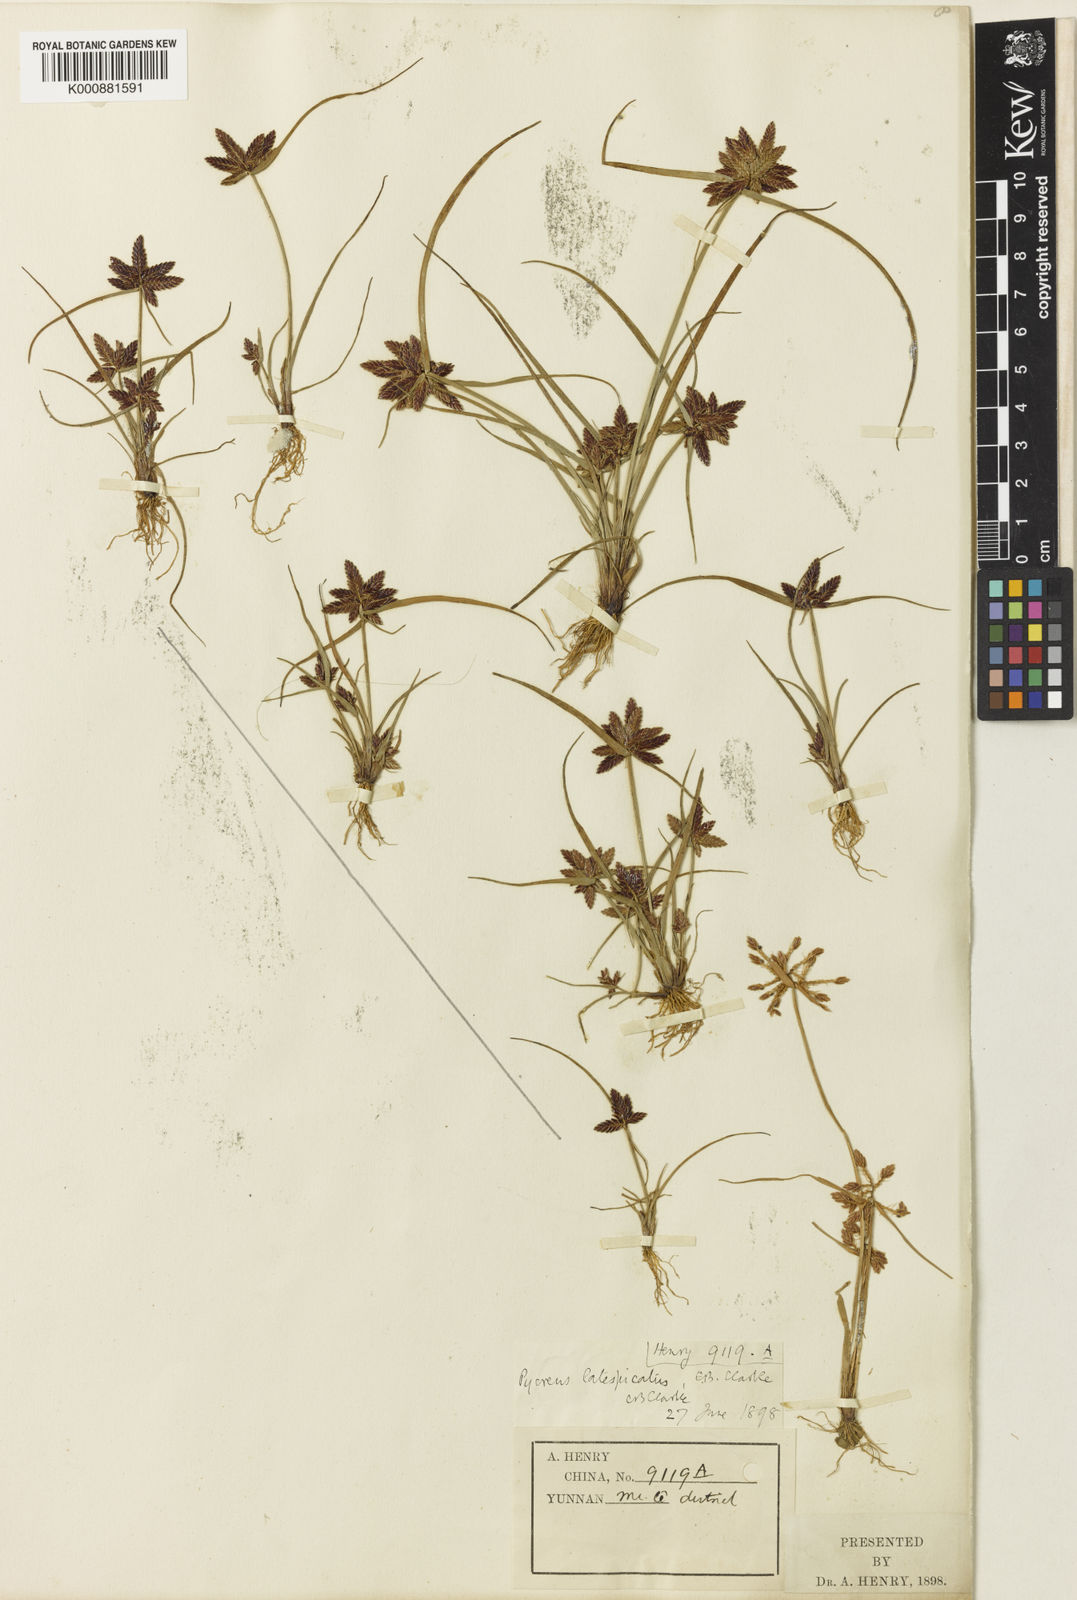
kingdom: Plantae
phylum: Tracheophyta
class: Liliopsida
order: Poales
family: Cyperaceae
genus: Cyperus
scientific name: Cyperus diaphanus
